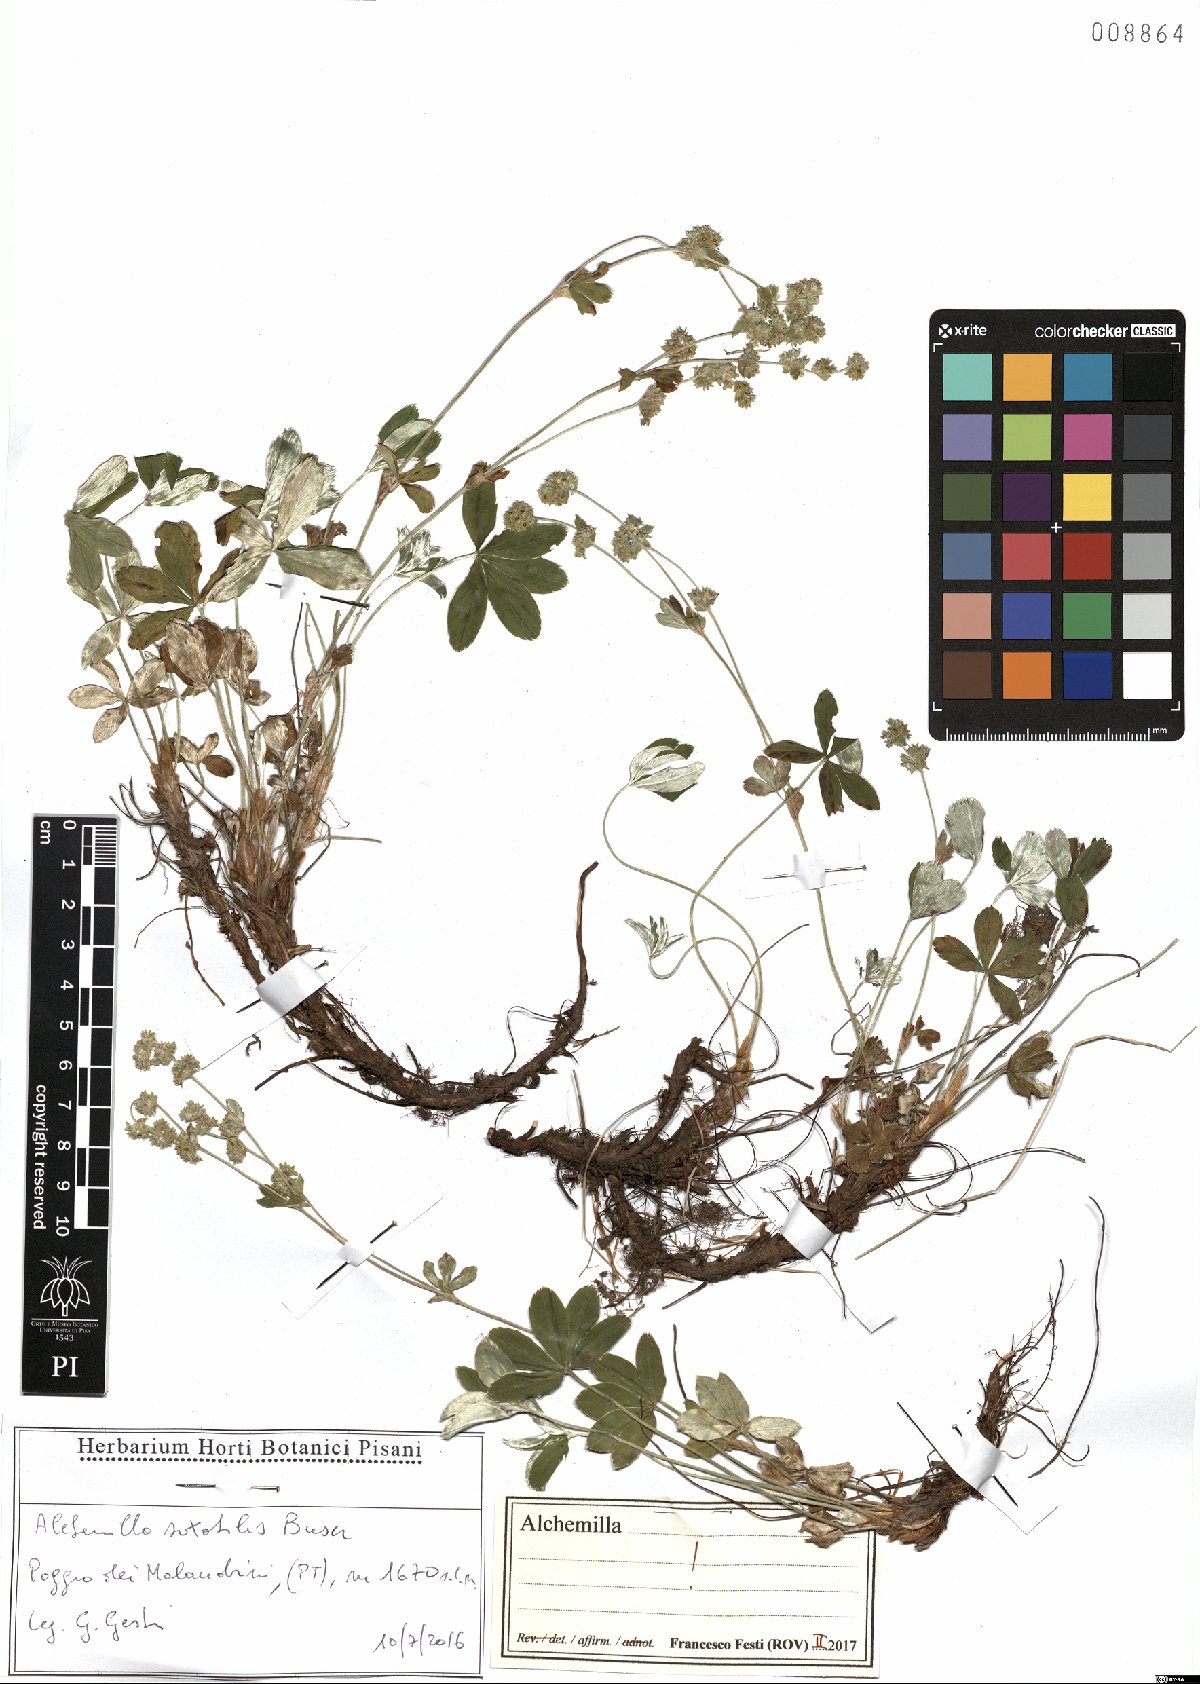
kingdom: Plantae
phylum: Tracheophyta
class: Magnoliopsida
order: Rosales
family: Rosaceae
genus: Alchemilla
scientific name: Alchemilla saxatilis
